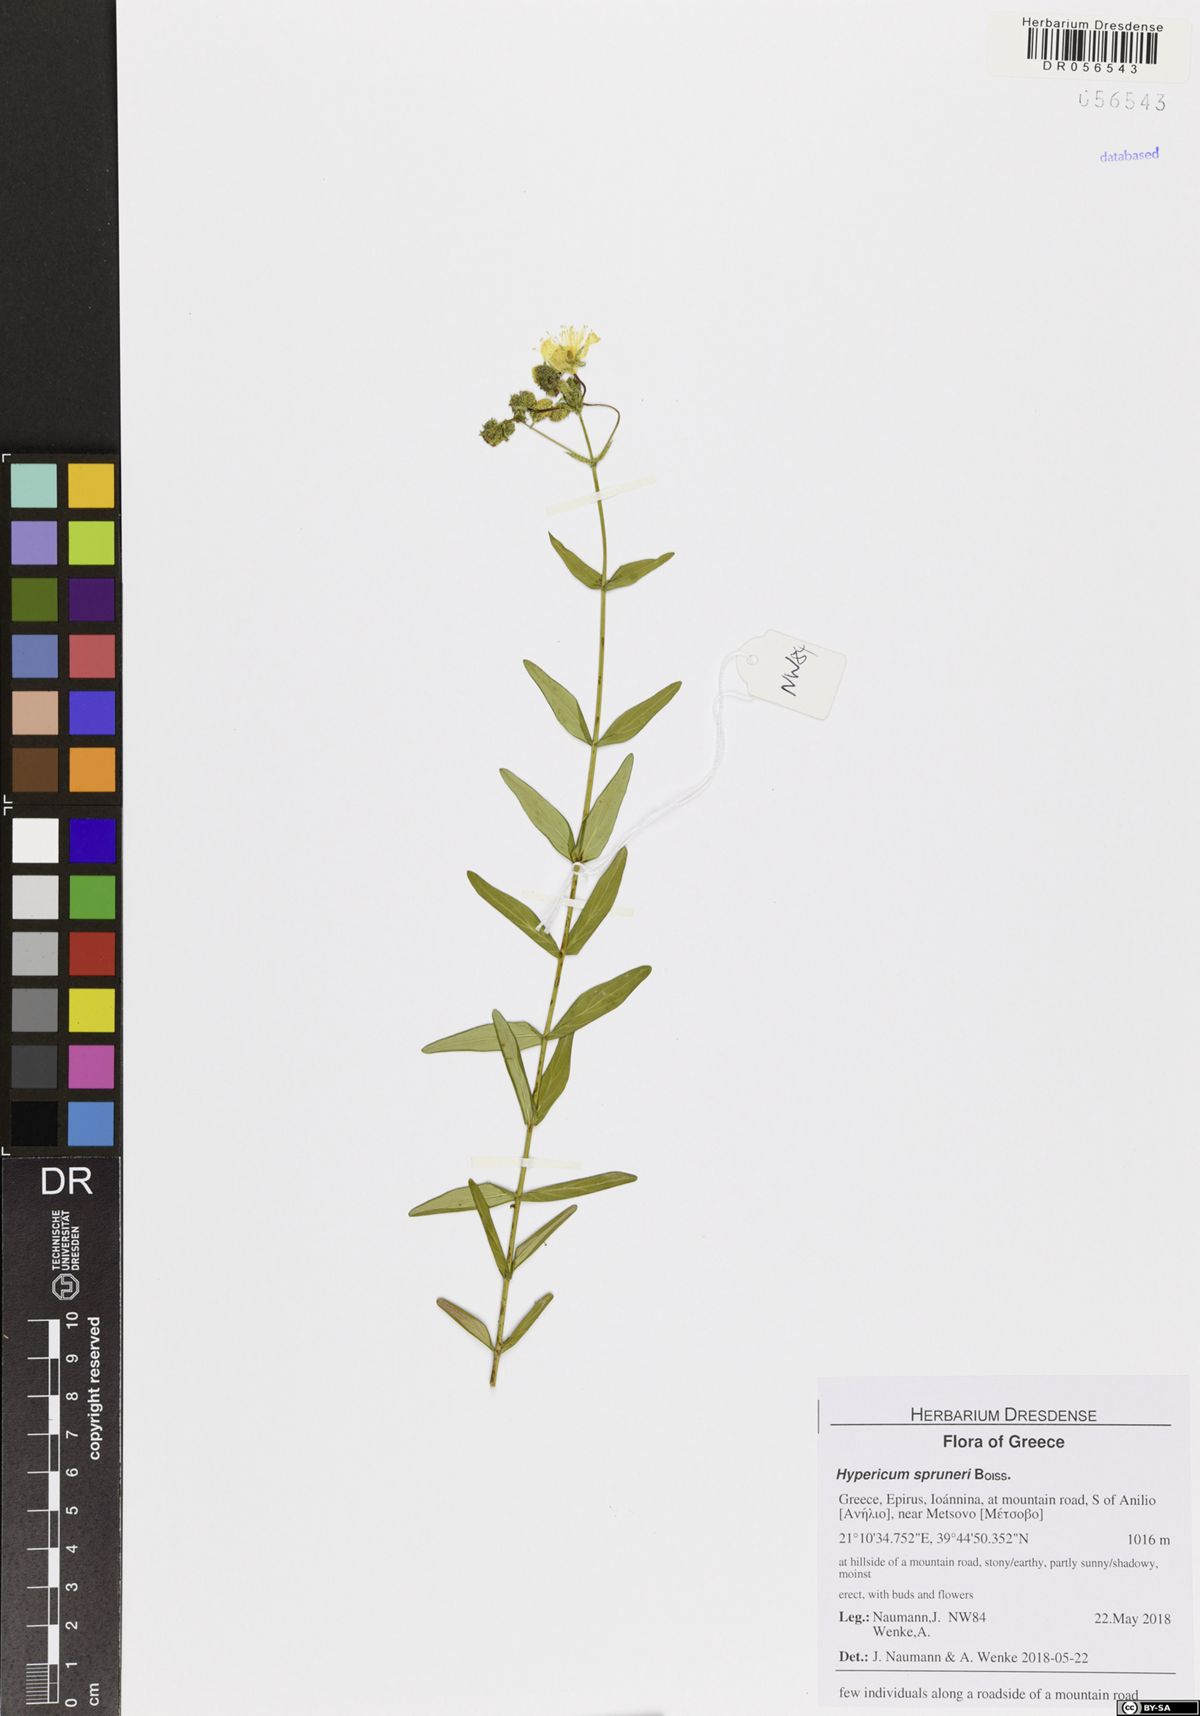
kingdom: Plantae
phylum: Tracheophyta
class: Magnoliopsida
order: Malpighiales
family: Hypericaceae
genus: Hypericum
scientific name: Hypericum spruneri
